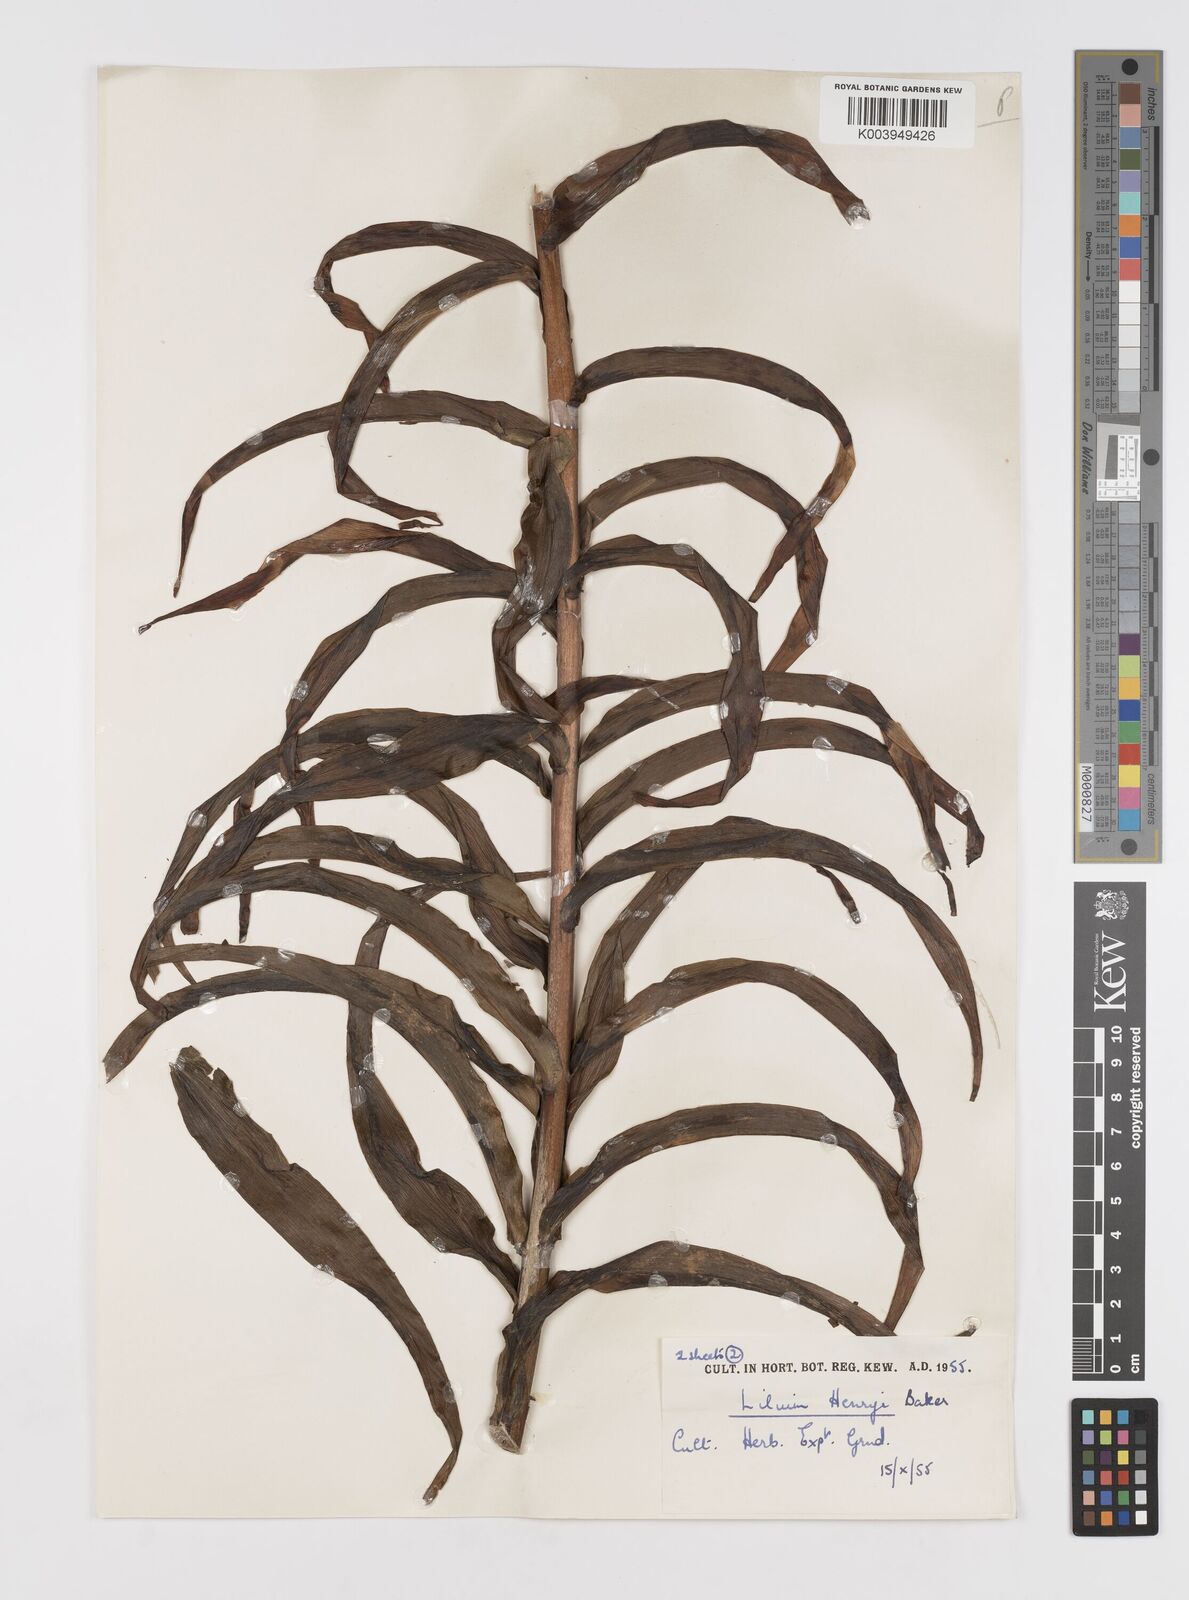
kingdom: Plantae
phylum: Tracheophyta
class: Liliopsida
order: Liliales
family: Liliaceae
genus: Lilium
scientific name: Lilium henryi
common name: Henry's lily
